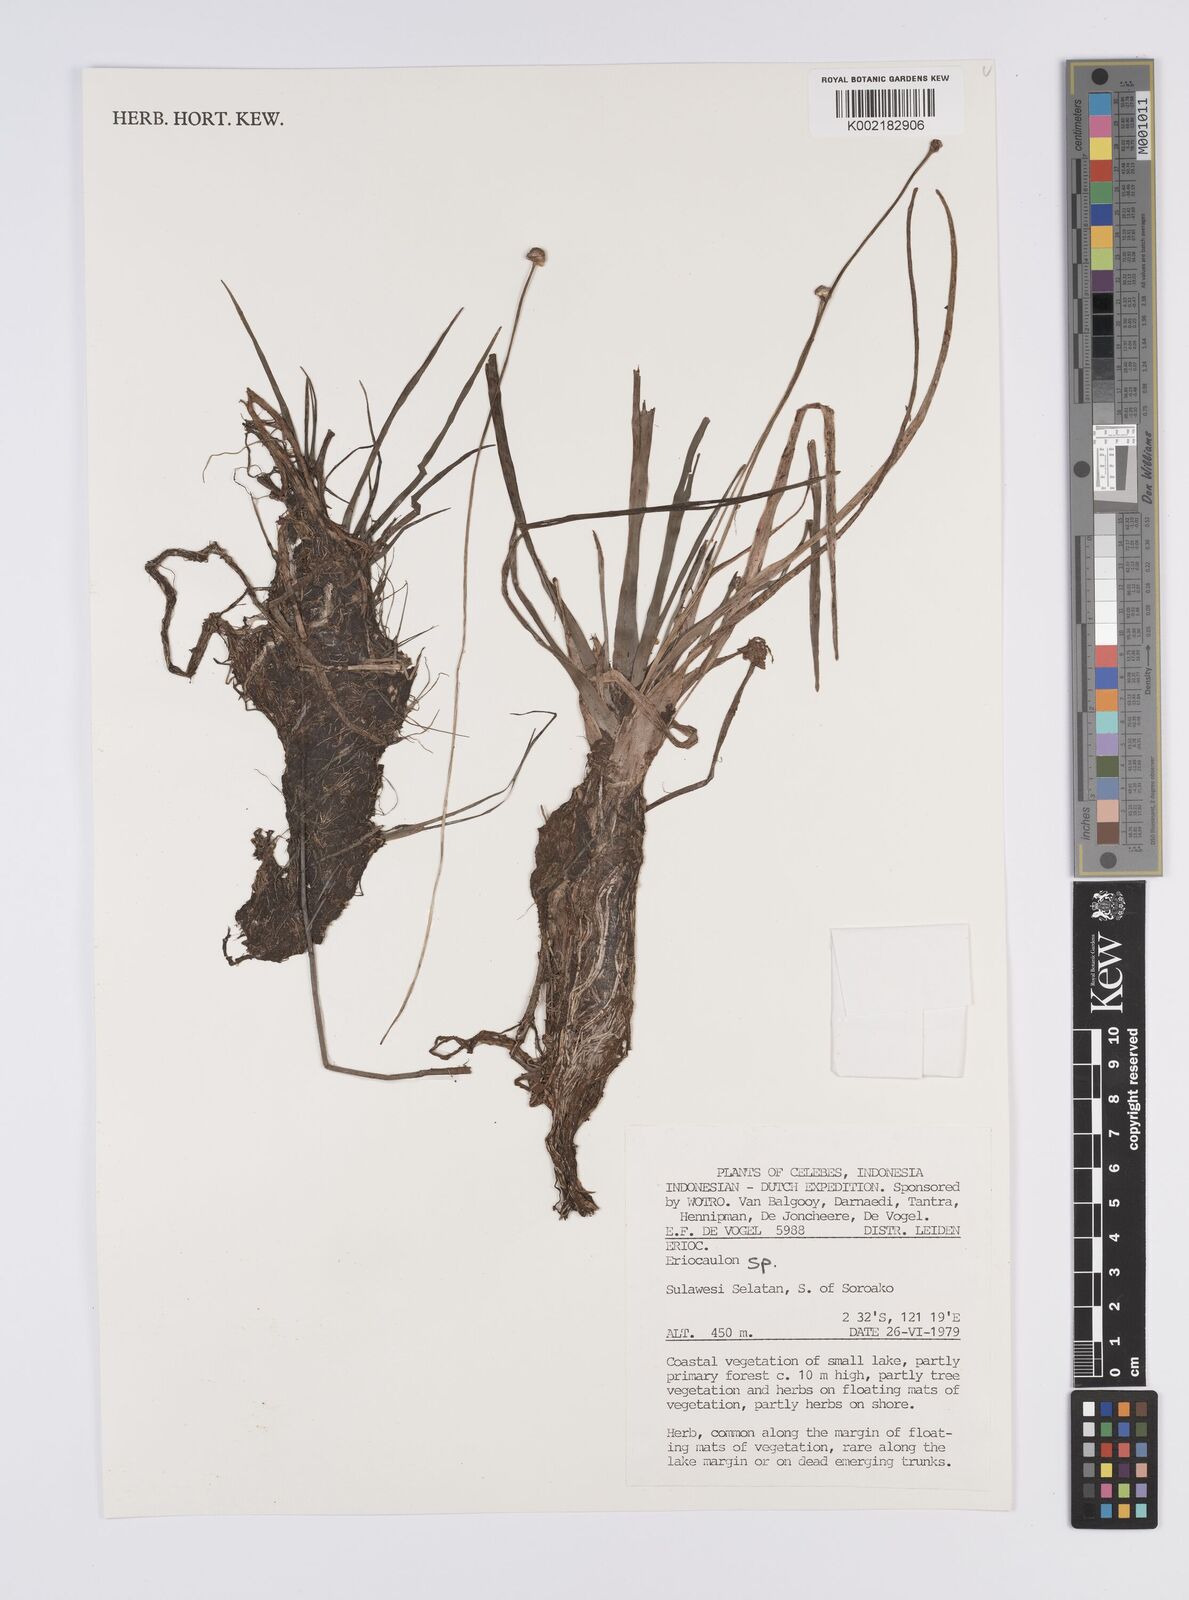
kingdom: Plantae
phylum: Tracheophyta
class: Liliopsida
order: Poales
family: Eriocaulaceae
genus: Eriocaulon
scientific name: Eriocaulon
